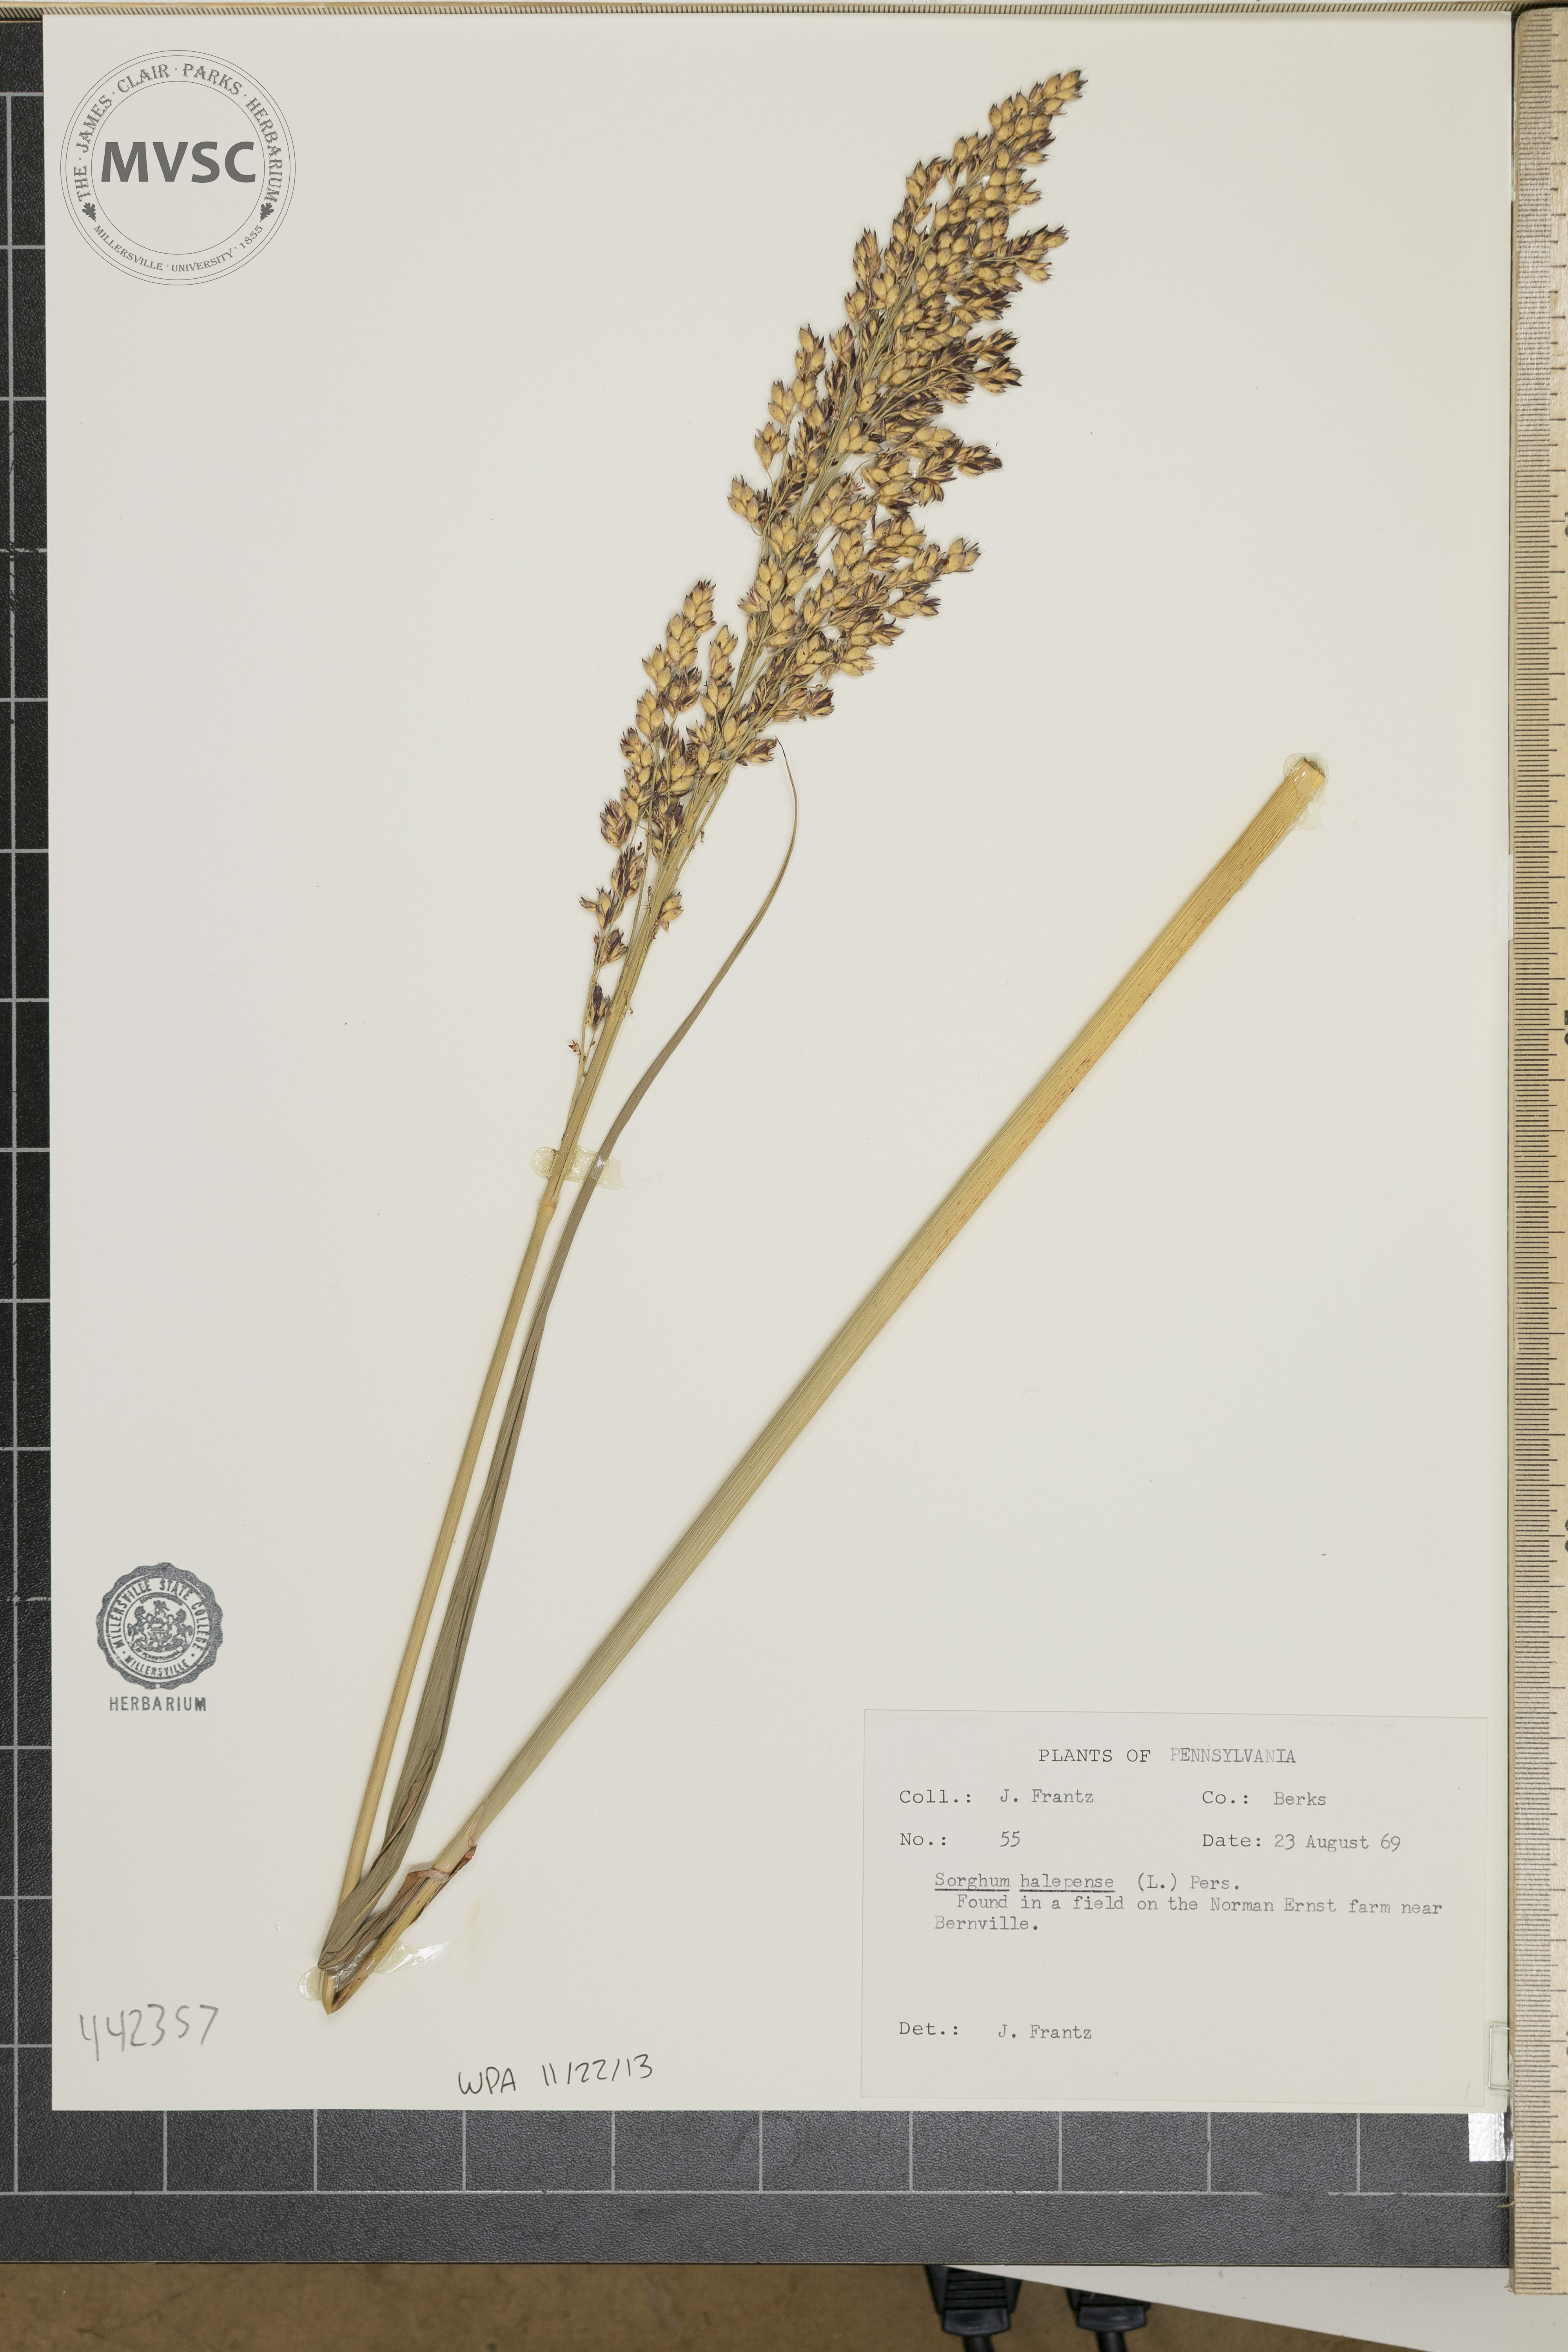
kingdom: Plantae
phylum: Tracheophyta
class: Liliopsida
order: Poales
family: Poaceae
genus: Sorghum
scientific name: Sorghum halepense
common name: Johnson-grass
